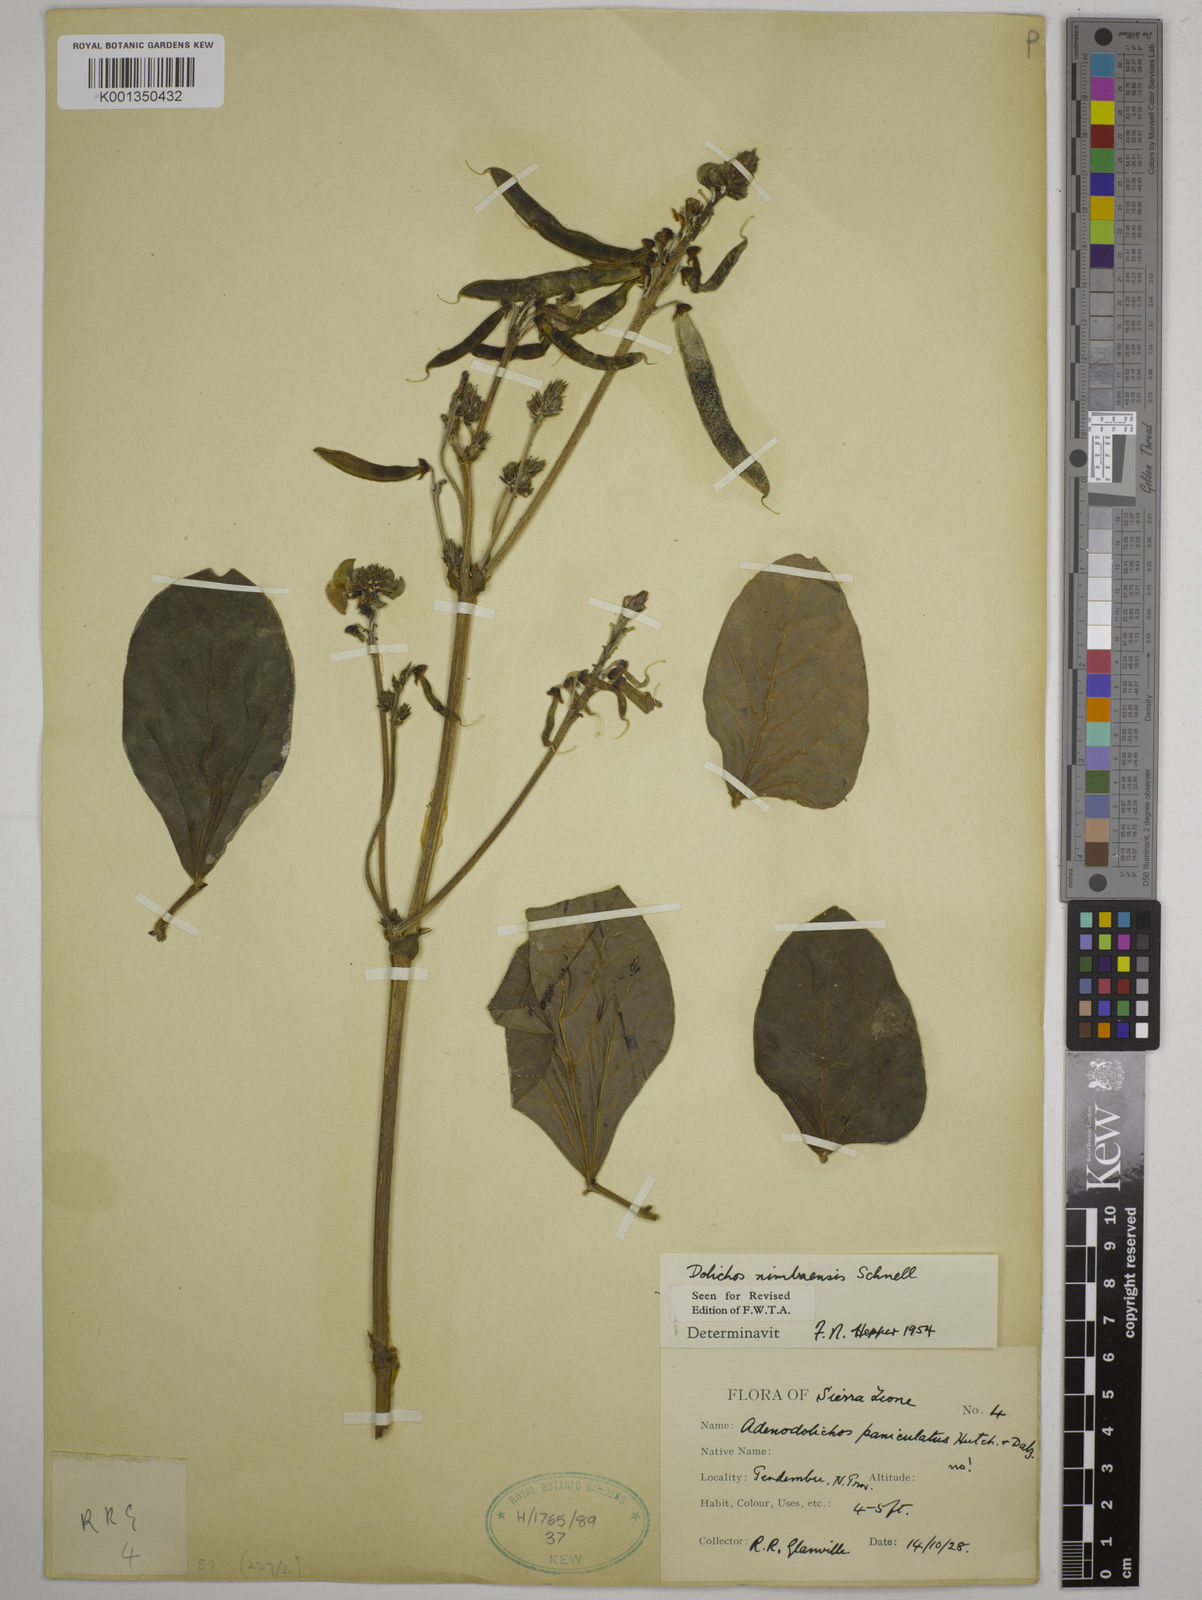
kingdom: Plantae
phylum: Tracheophyta
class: Magnoliopsida
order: Fabales
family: Fabaceae
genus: Dolichos
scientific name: Dolichos nimbaensis
